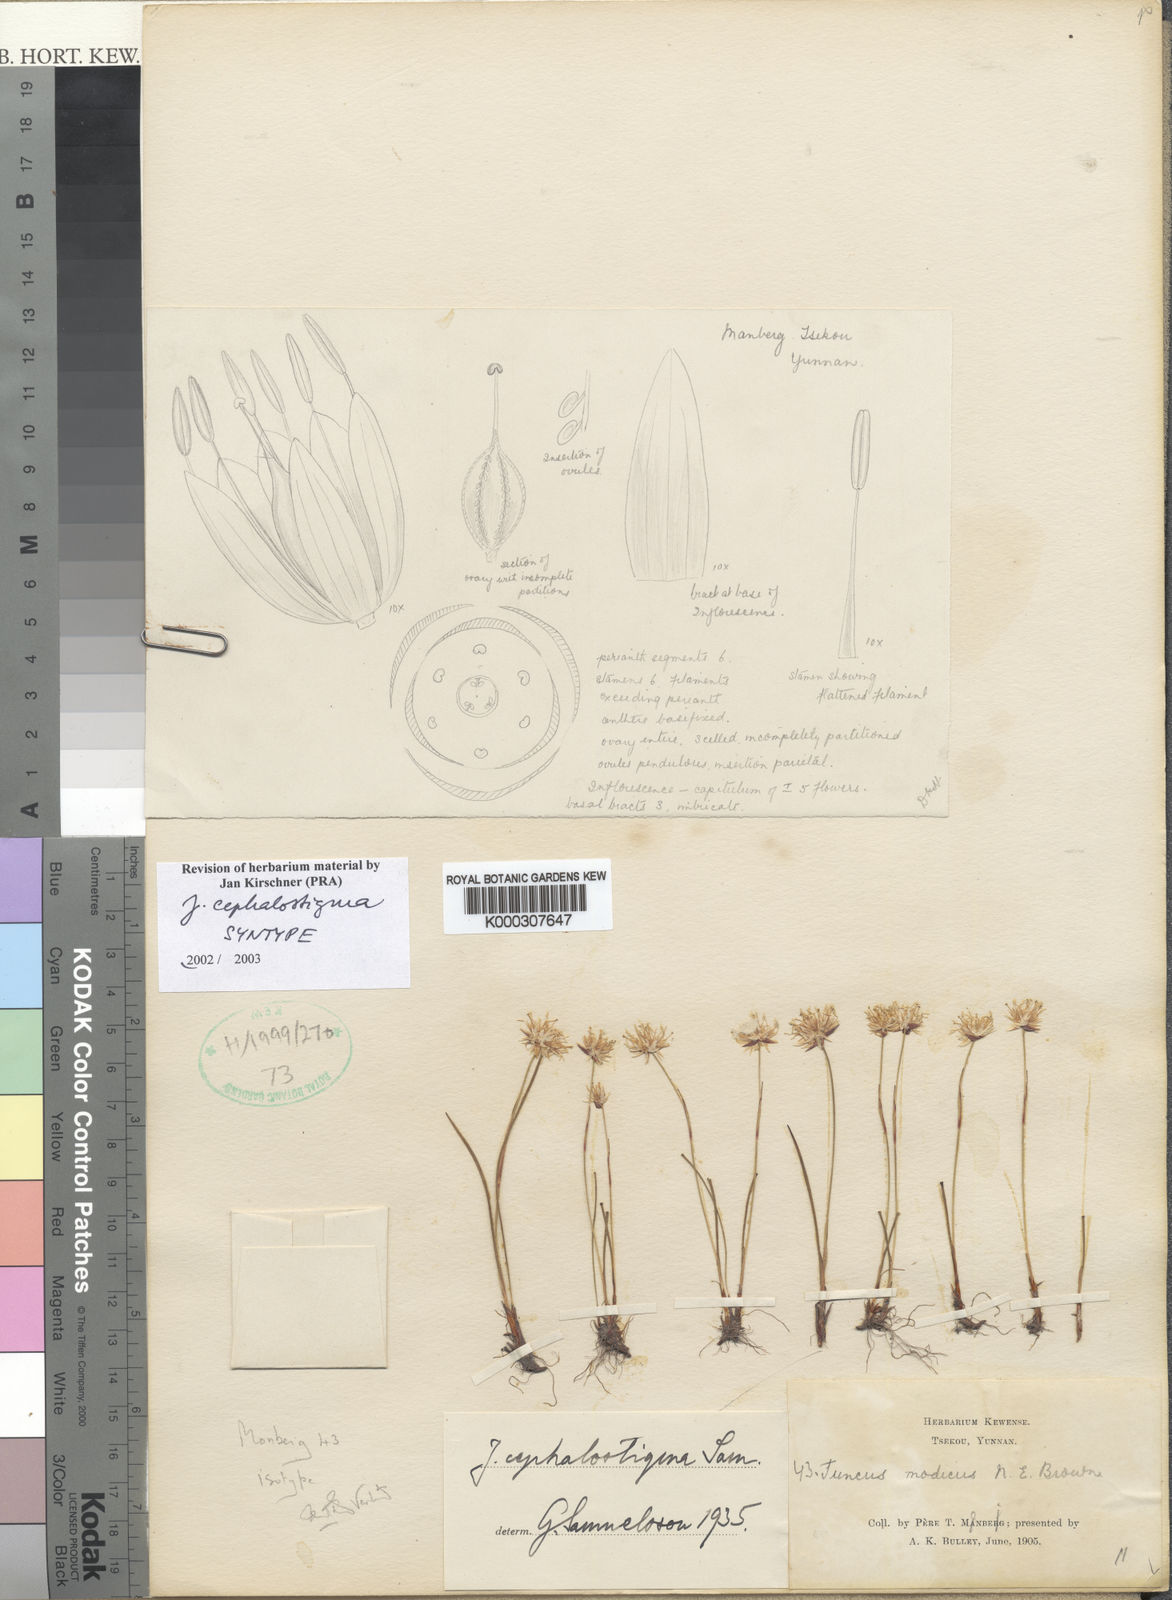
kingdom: Plantae
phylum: Tracheophyta
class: Liliopsida
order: Poales
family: Juncaceae
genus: Juncus
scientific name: Juncus modicus
